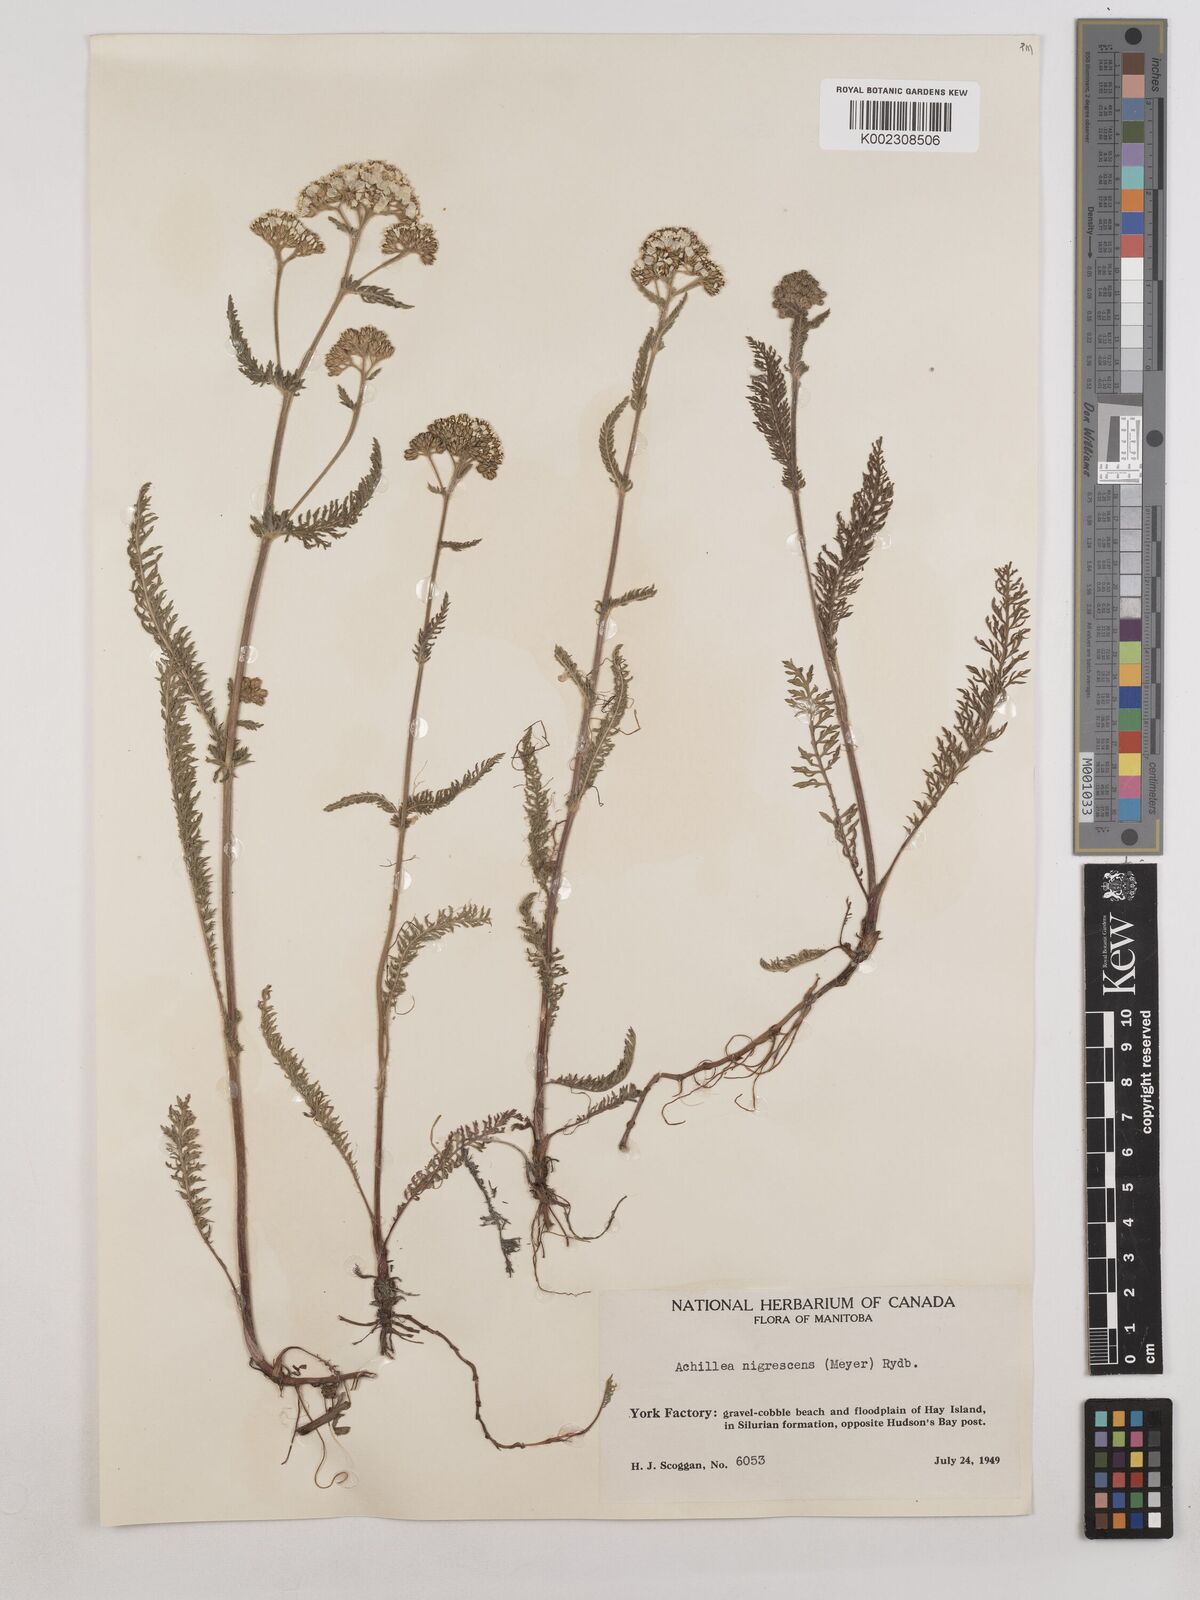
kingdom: Plantae
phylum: Tracheophyta
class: Magnoliopsida
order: Asterales
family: Asteraceae
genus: Achillea
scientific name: Achillea millefolium
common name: Yarrow
